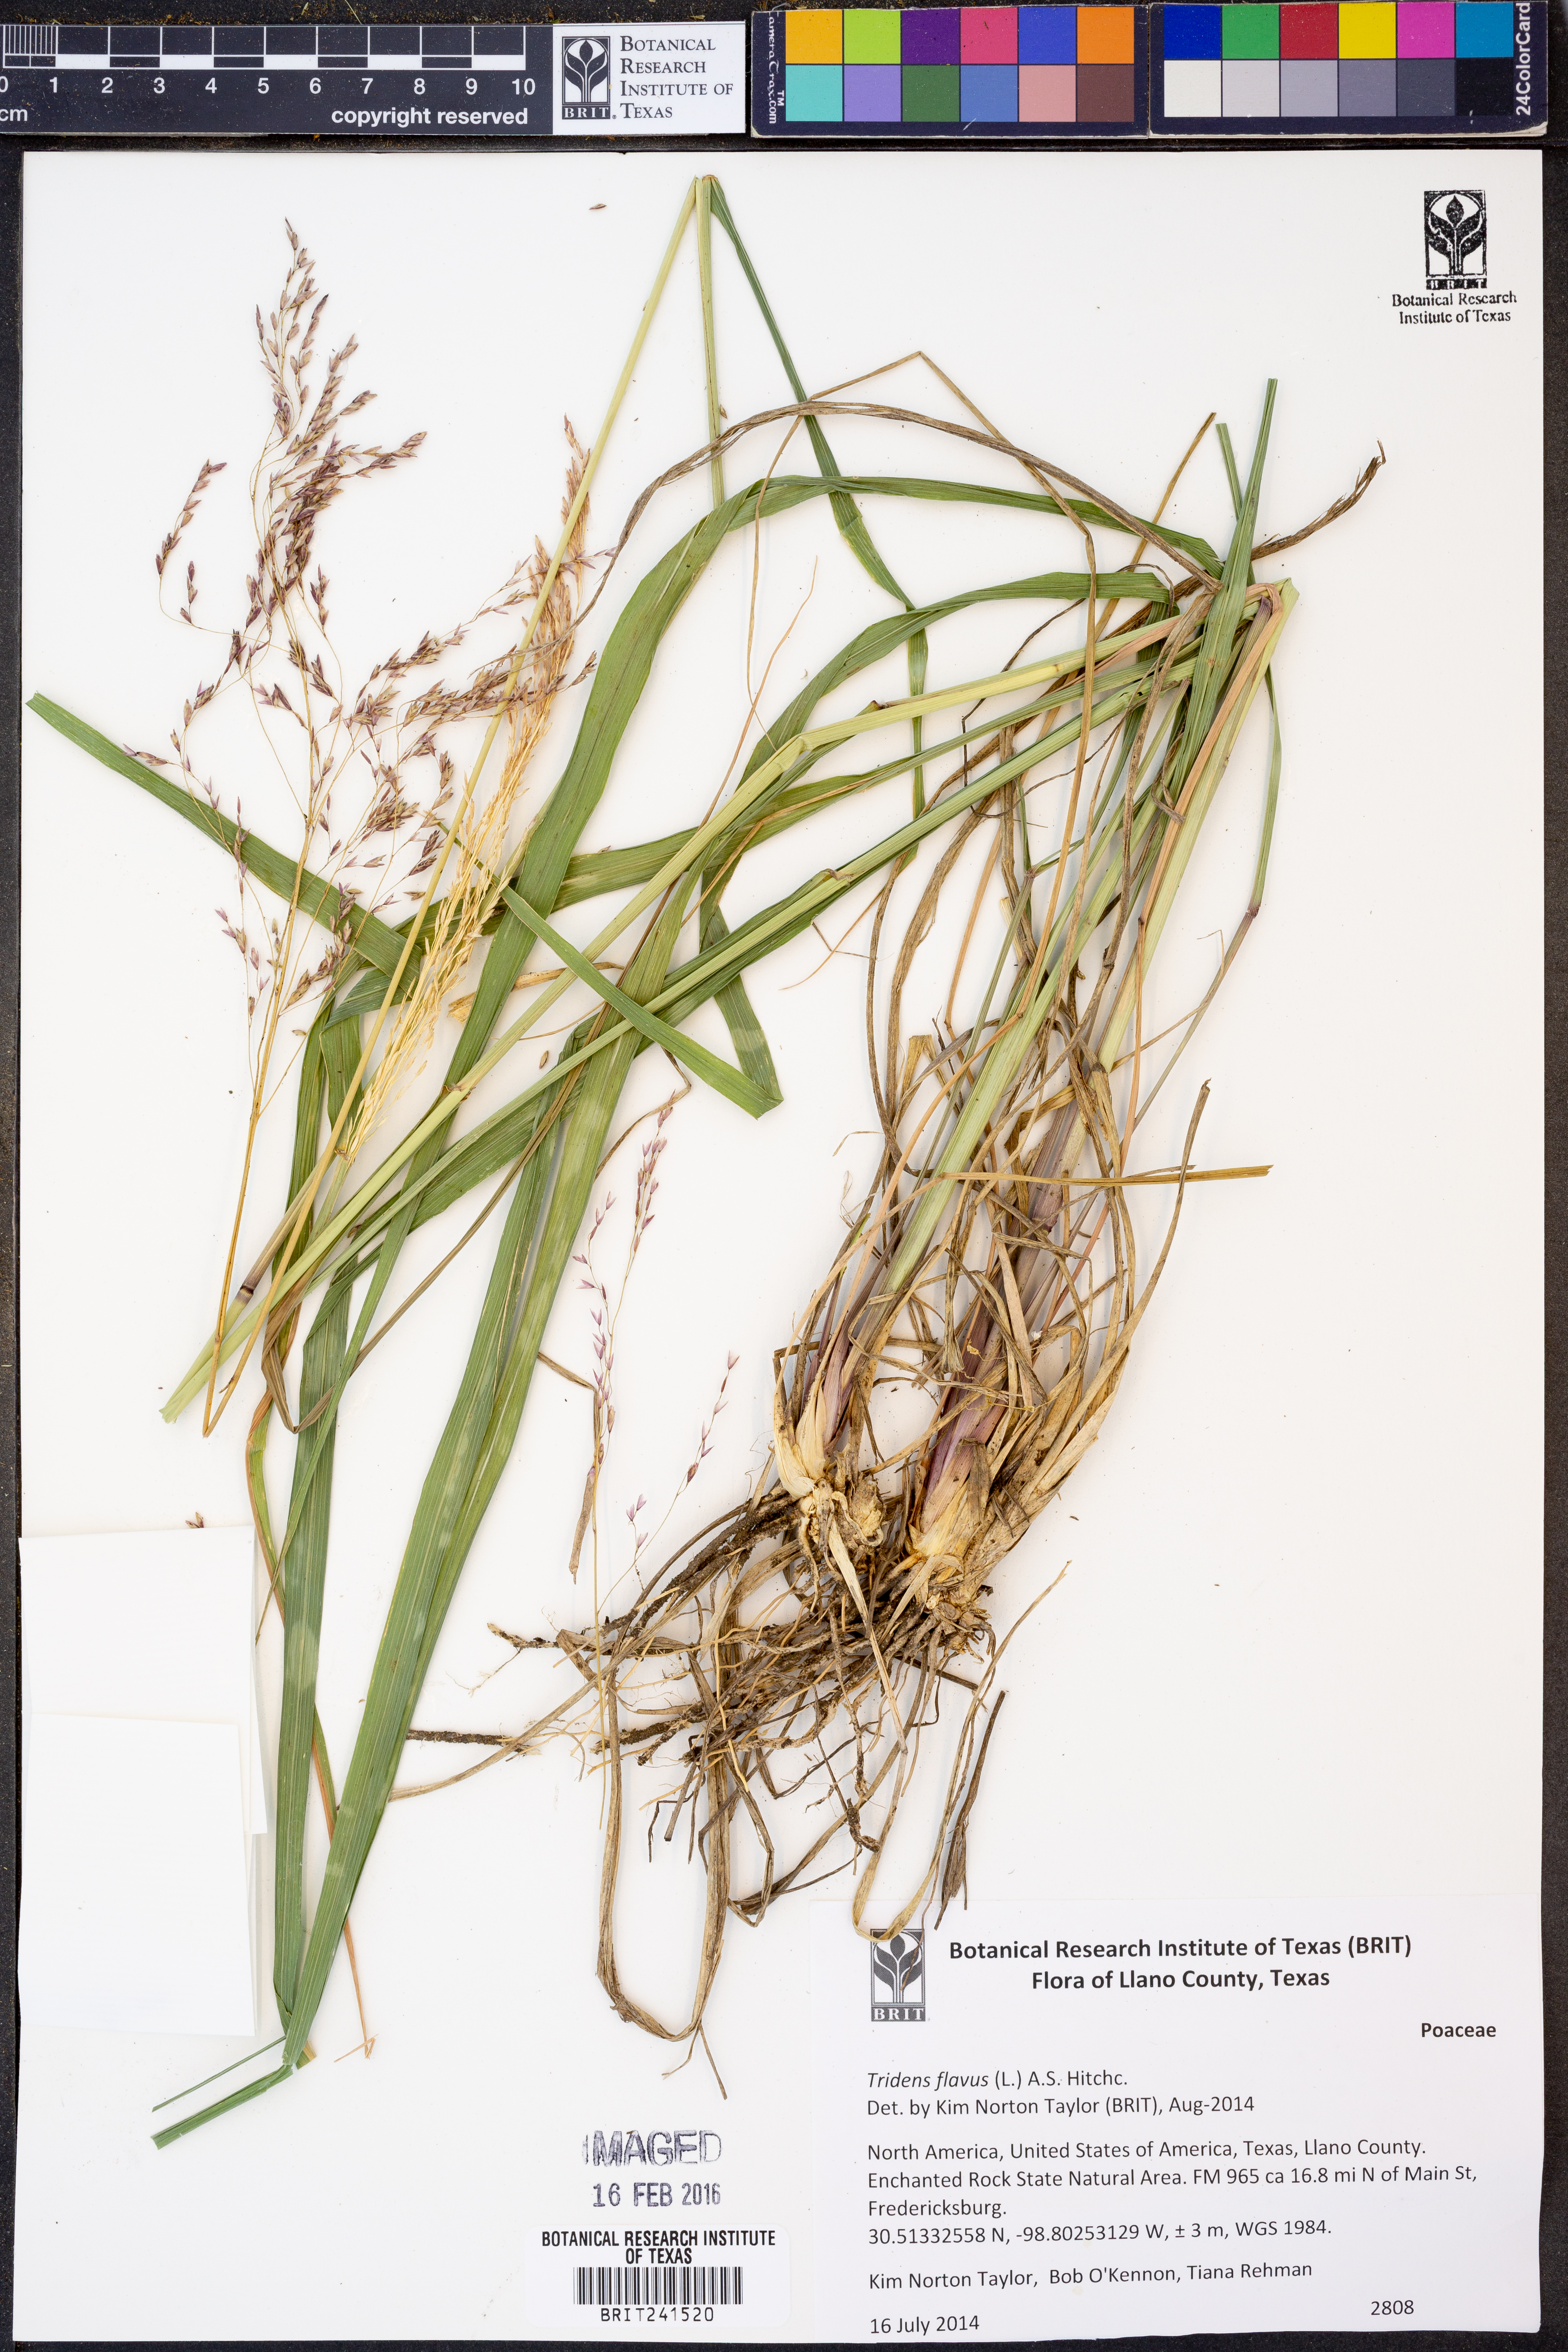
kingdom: Plantae
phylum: Tracheophyta
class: Liliopsida
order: Poales
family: Poaceae
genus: Tridens
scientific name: Tridens flavus
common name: Purpletop
